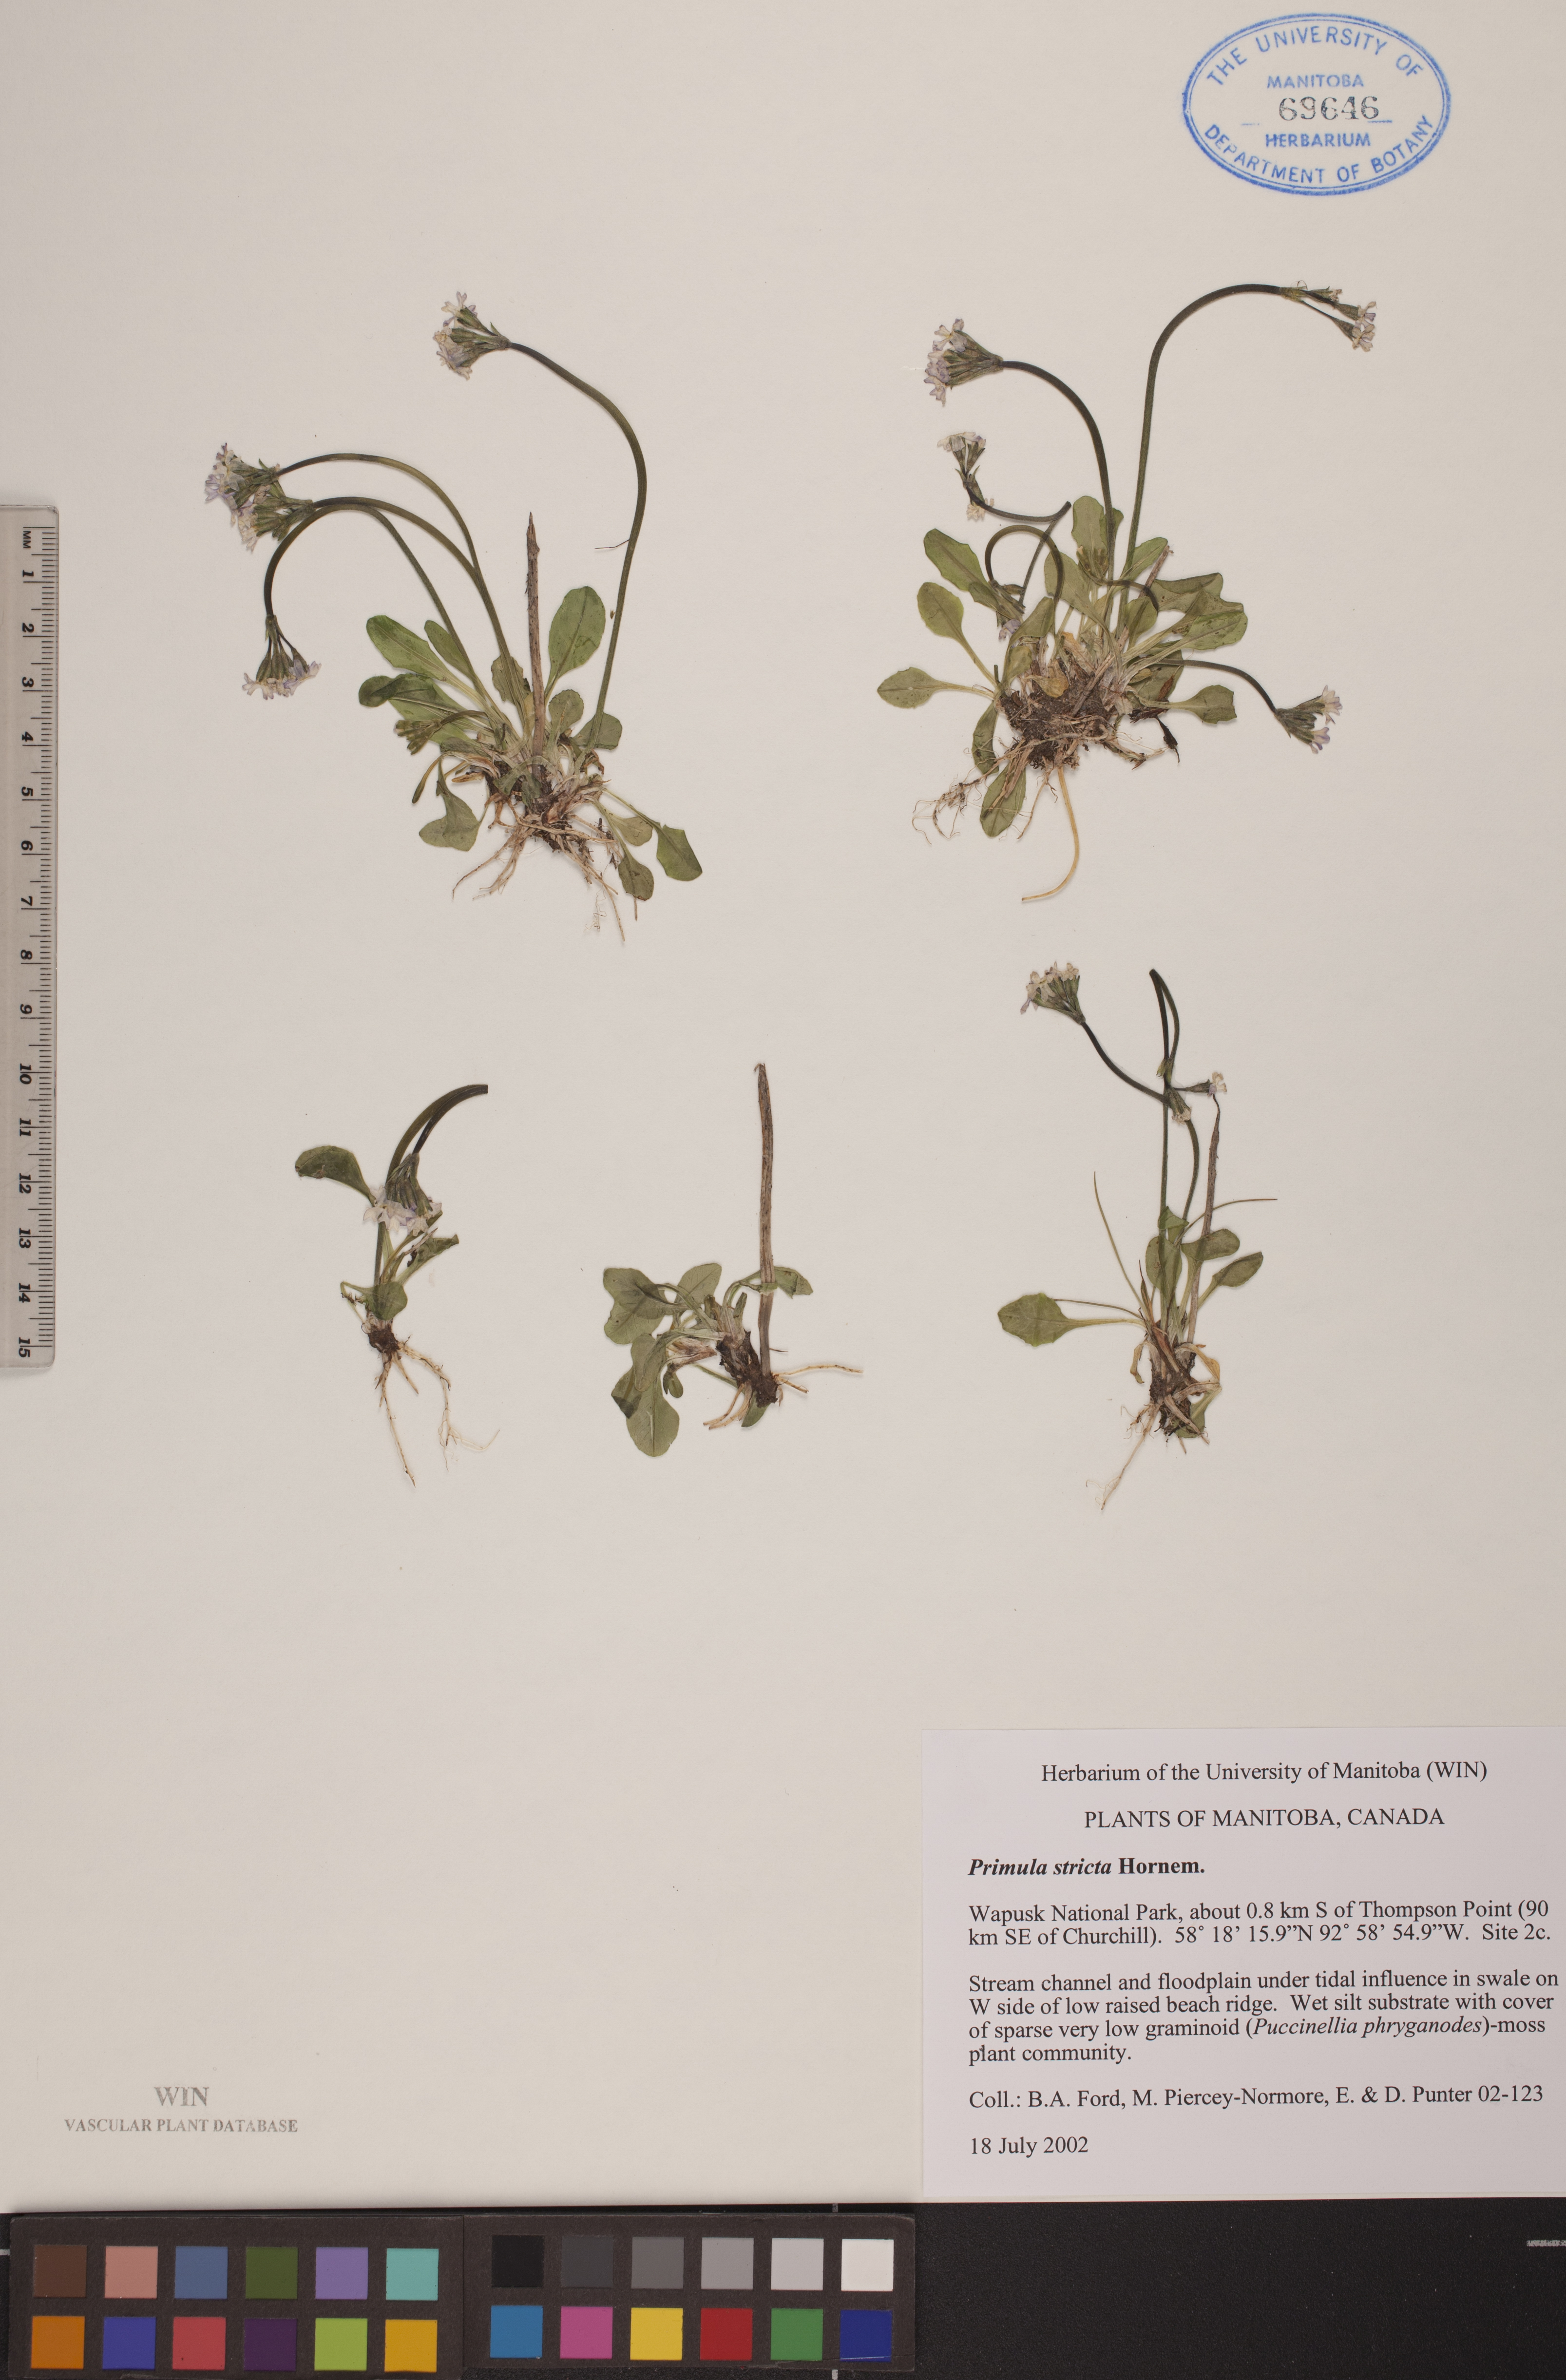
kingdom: Plantae
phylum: Tracheophyta
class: Magnoliopsida
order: Ericales
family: Primulaceae
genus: Primula
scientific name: Primula stricta
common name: Coastal primrose
